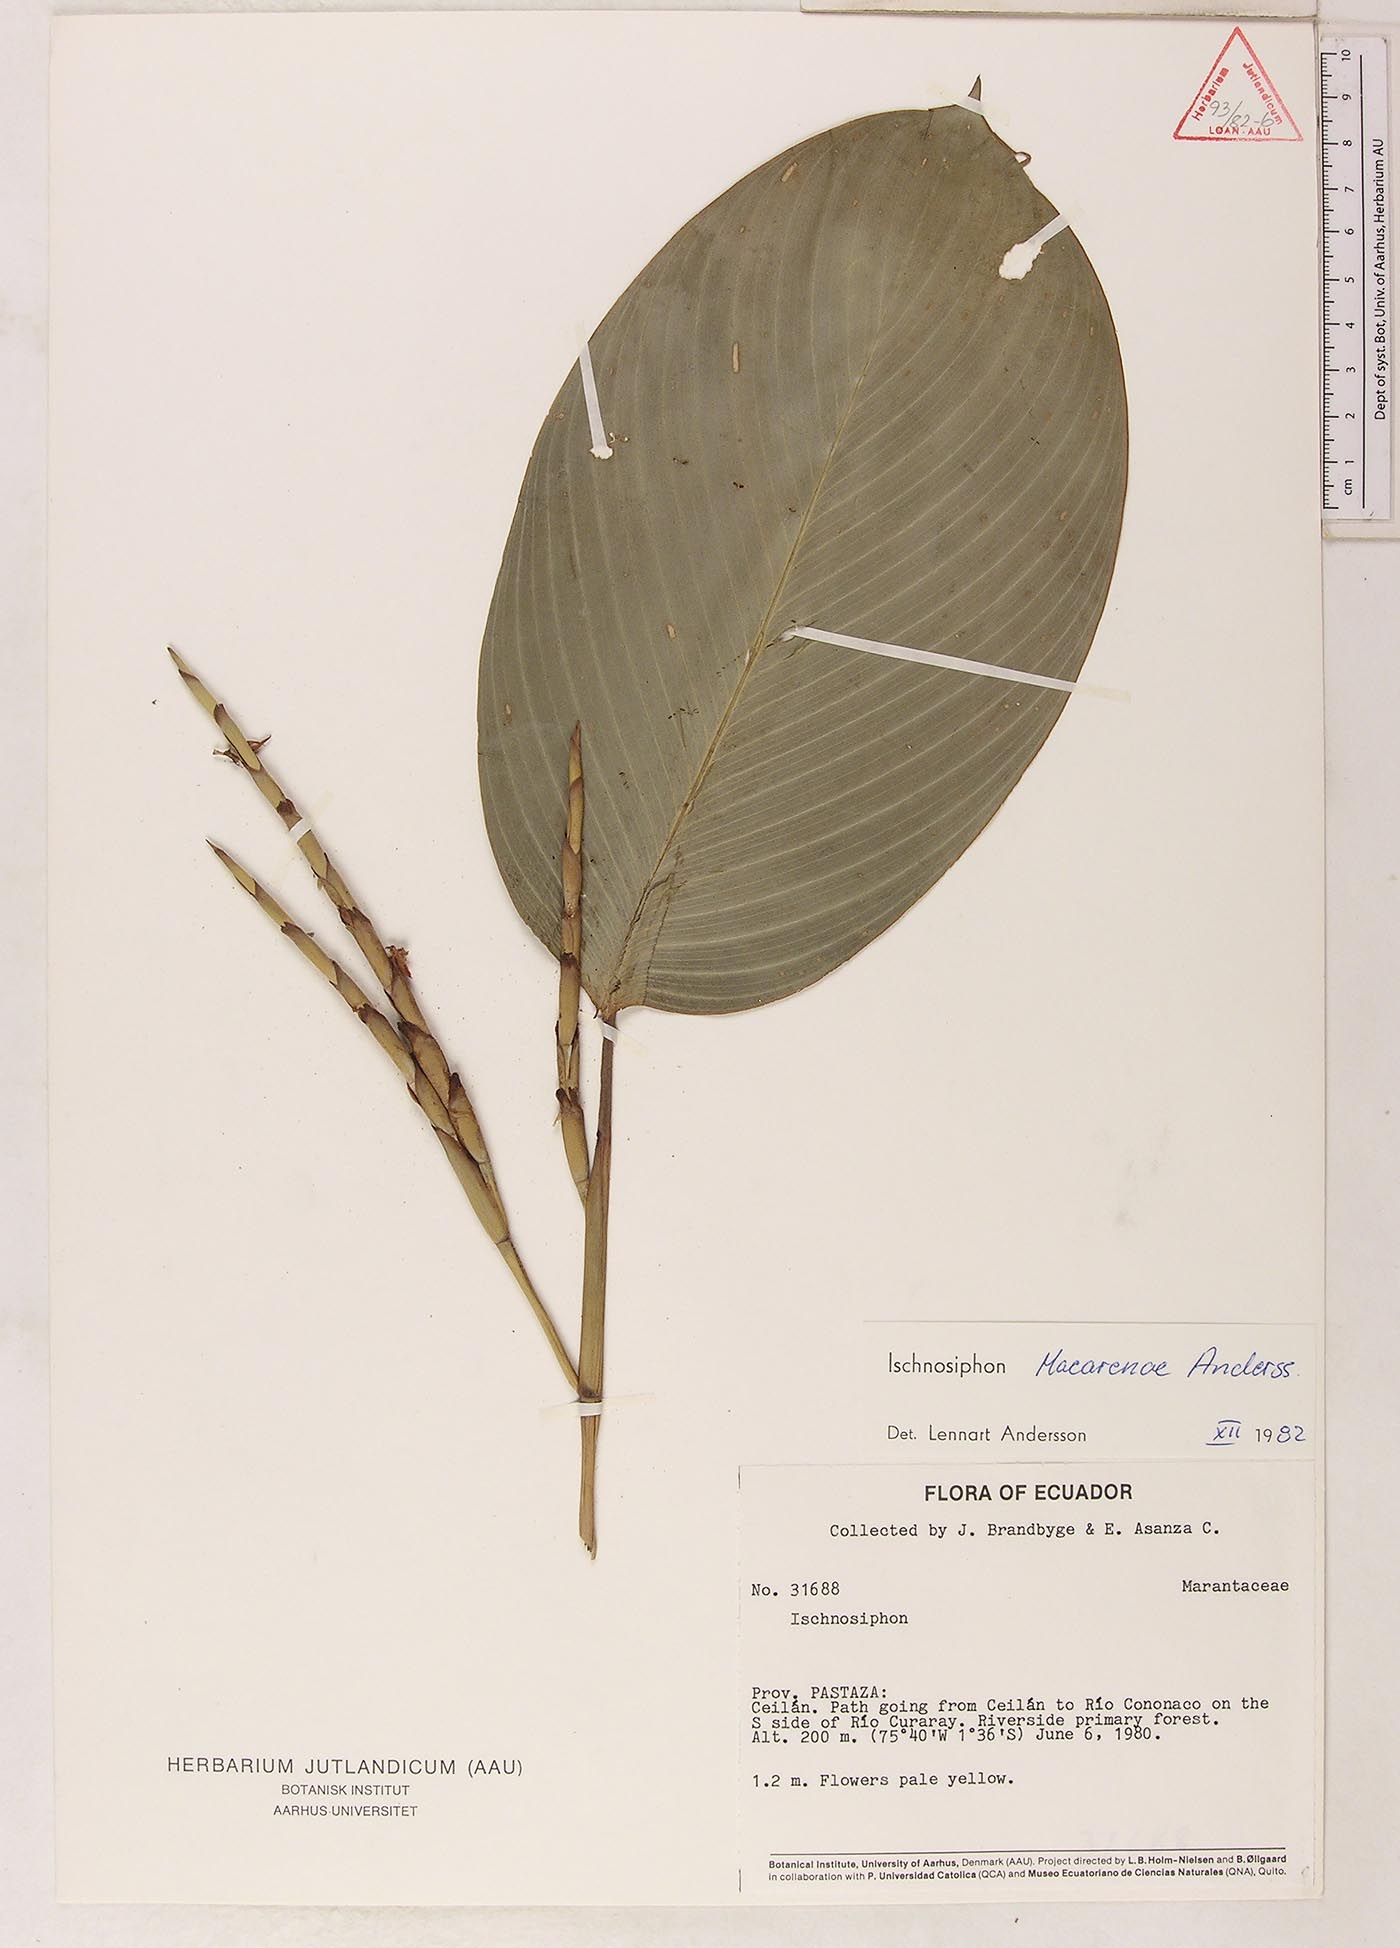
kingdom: Plantae
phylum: Tracheophyta
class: Liliopsida
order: Zingiberales
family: Marantaceae
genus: Ischnosiphon
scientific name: Ischnosiphon macarenae
